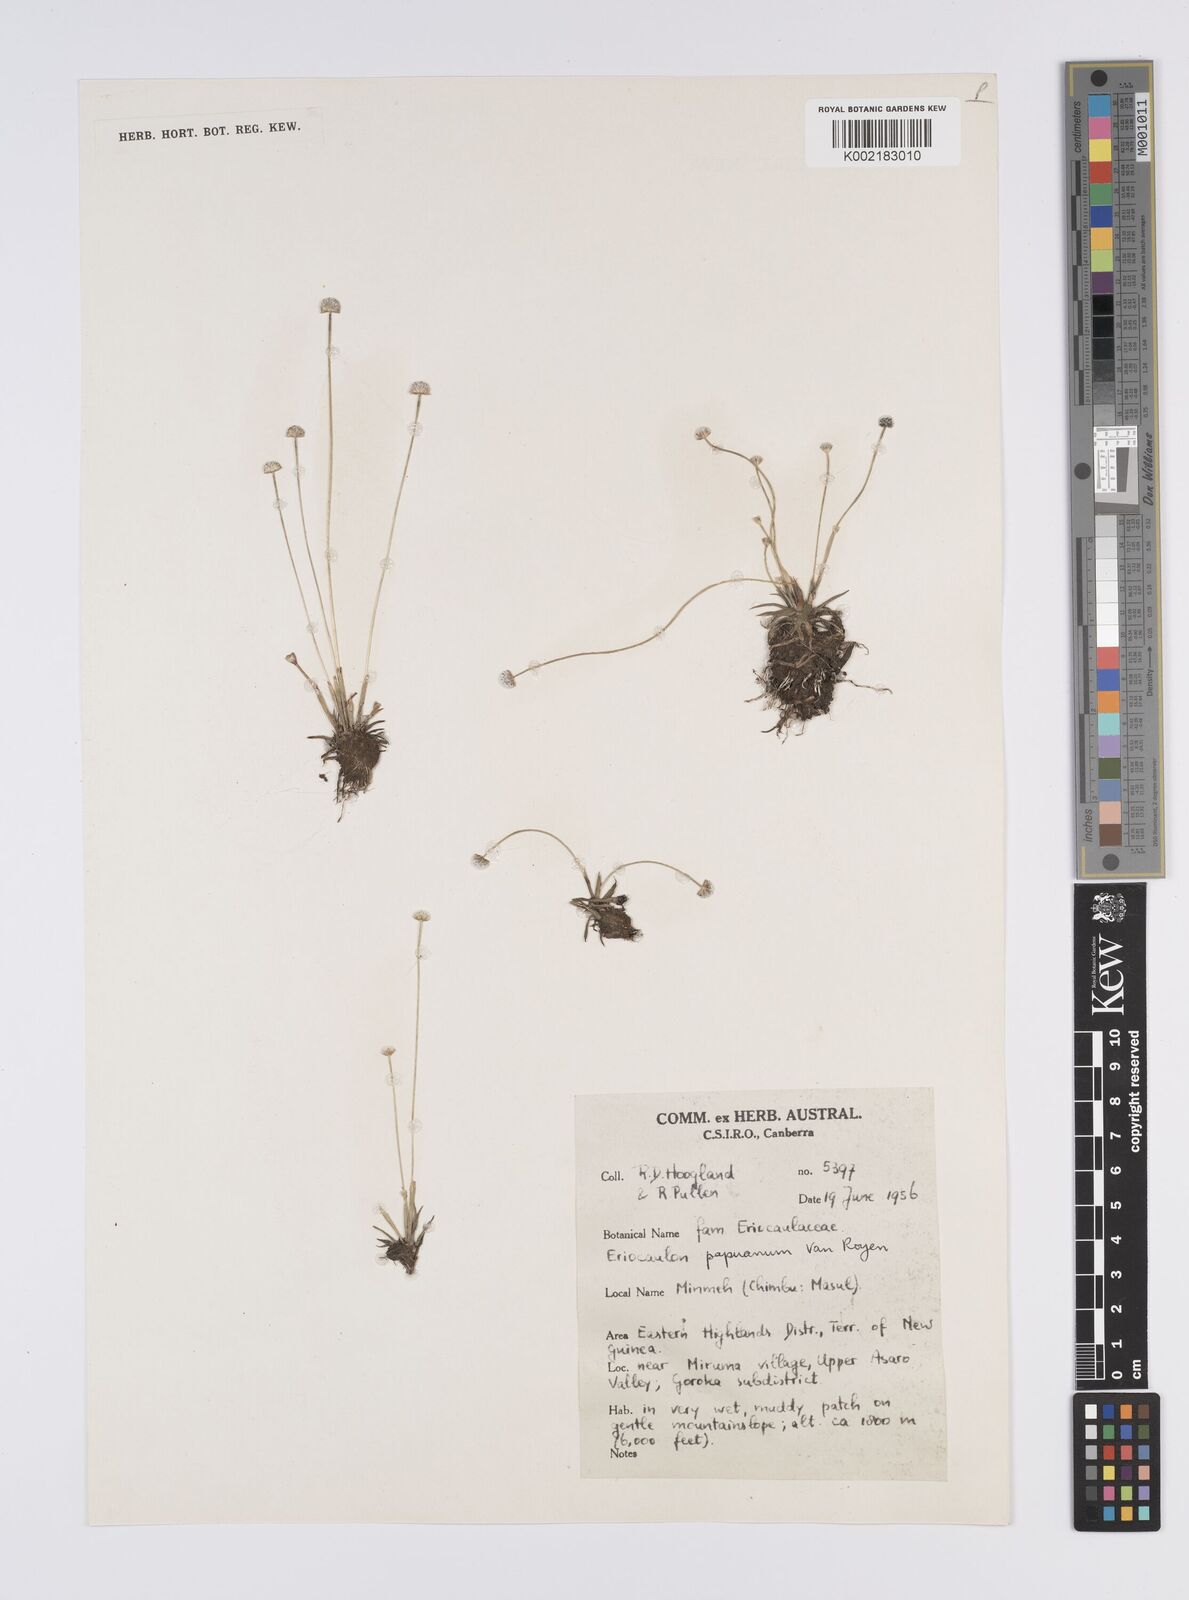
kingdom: Plantae
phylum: Tracheophyta
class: Liliopsida
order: Poales
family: Eriocaulaceae
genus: Eriocaulon
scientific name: Eriocaulon nepalense
